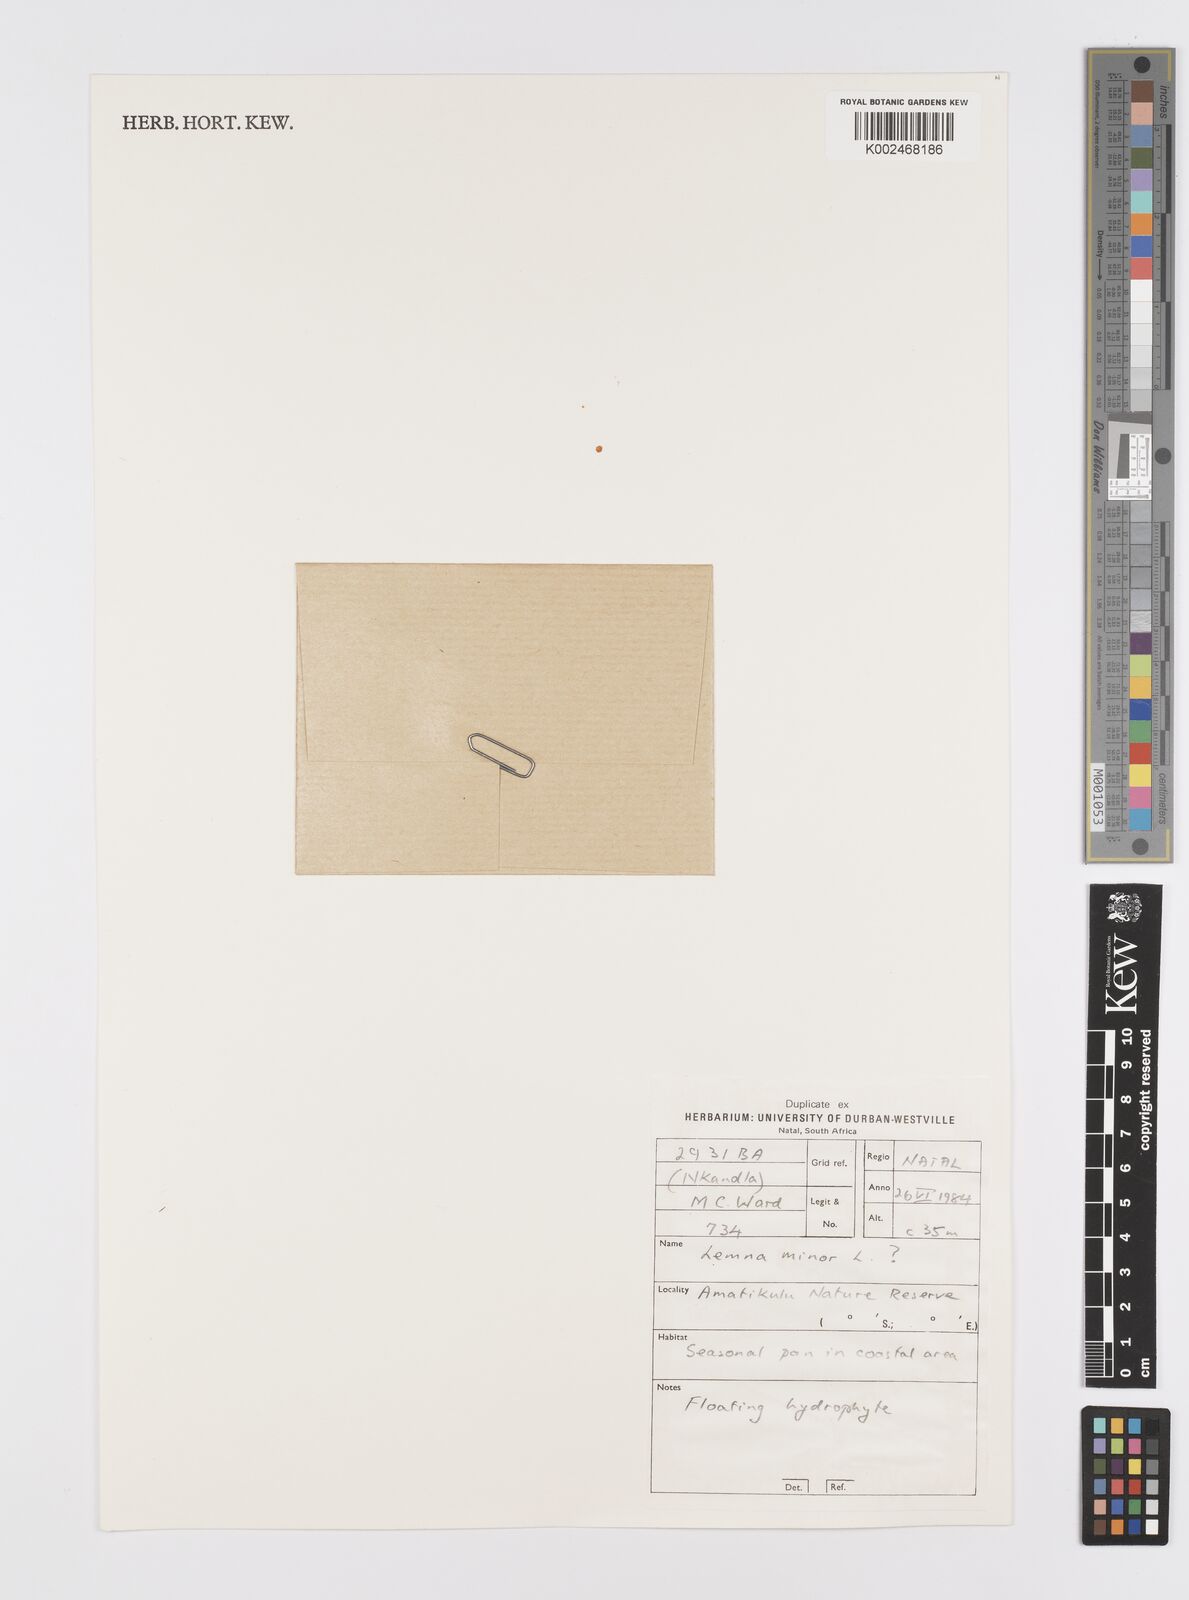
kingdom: Plantae
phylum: Tracheophyta
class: Liliopsida
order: Alismatales
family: Araceae
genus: Lemna
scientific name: Lemna minor
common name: Common duckweed
